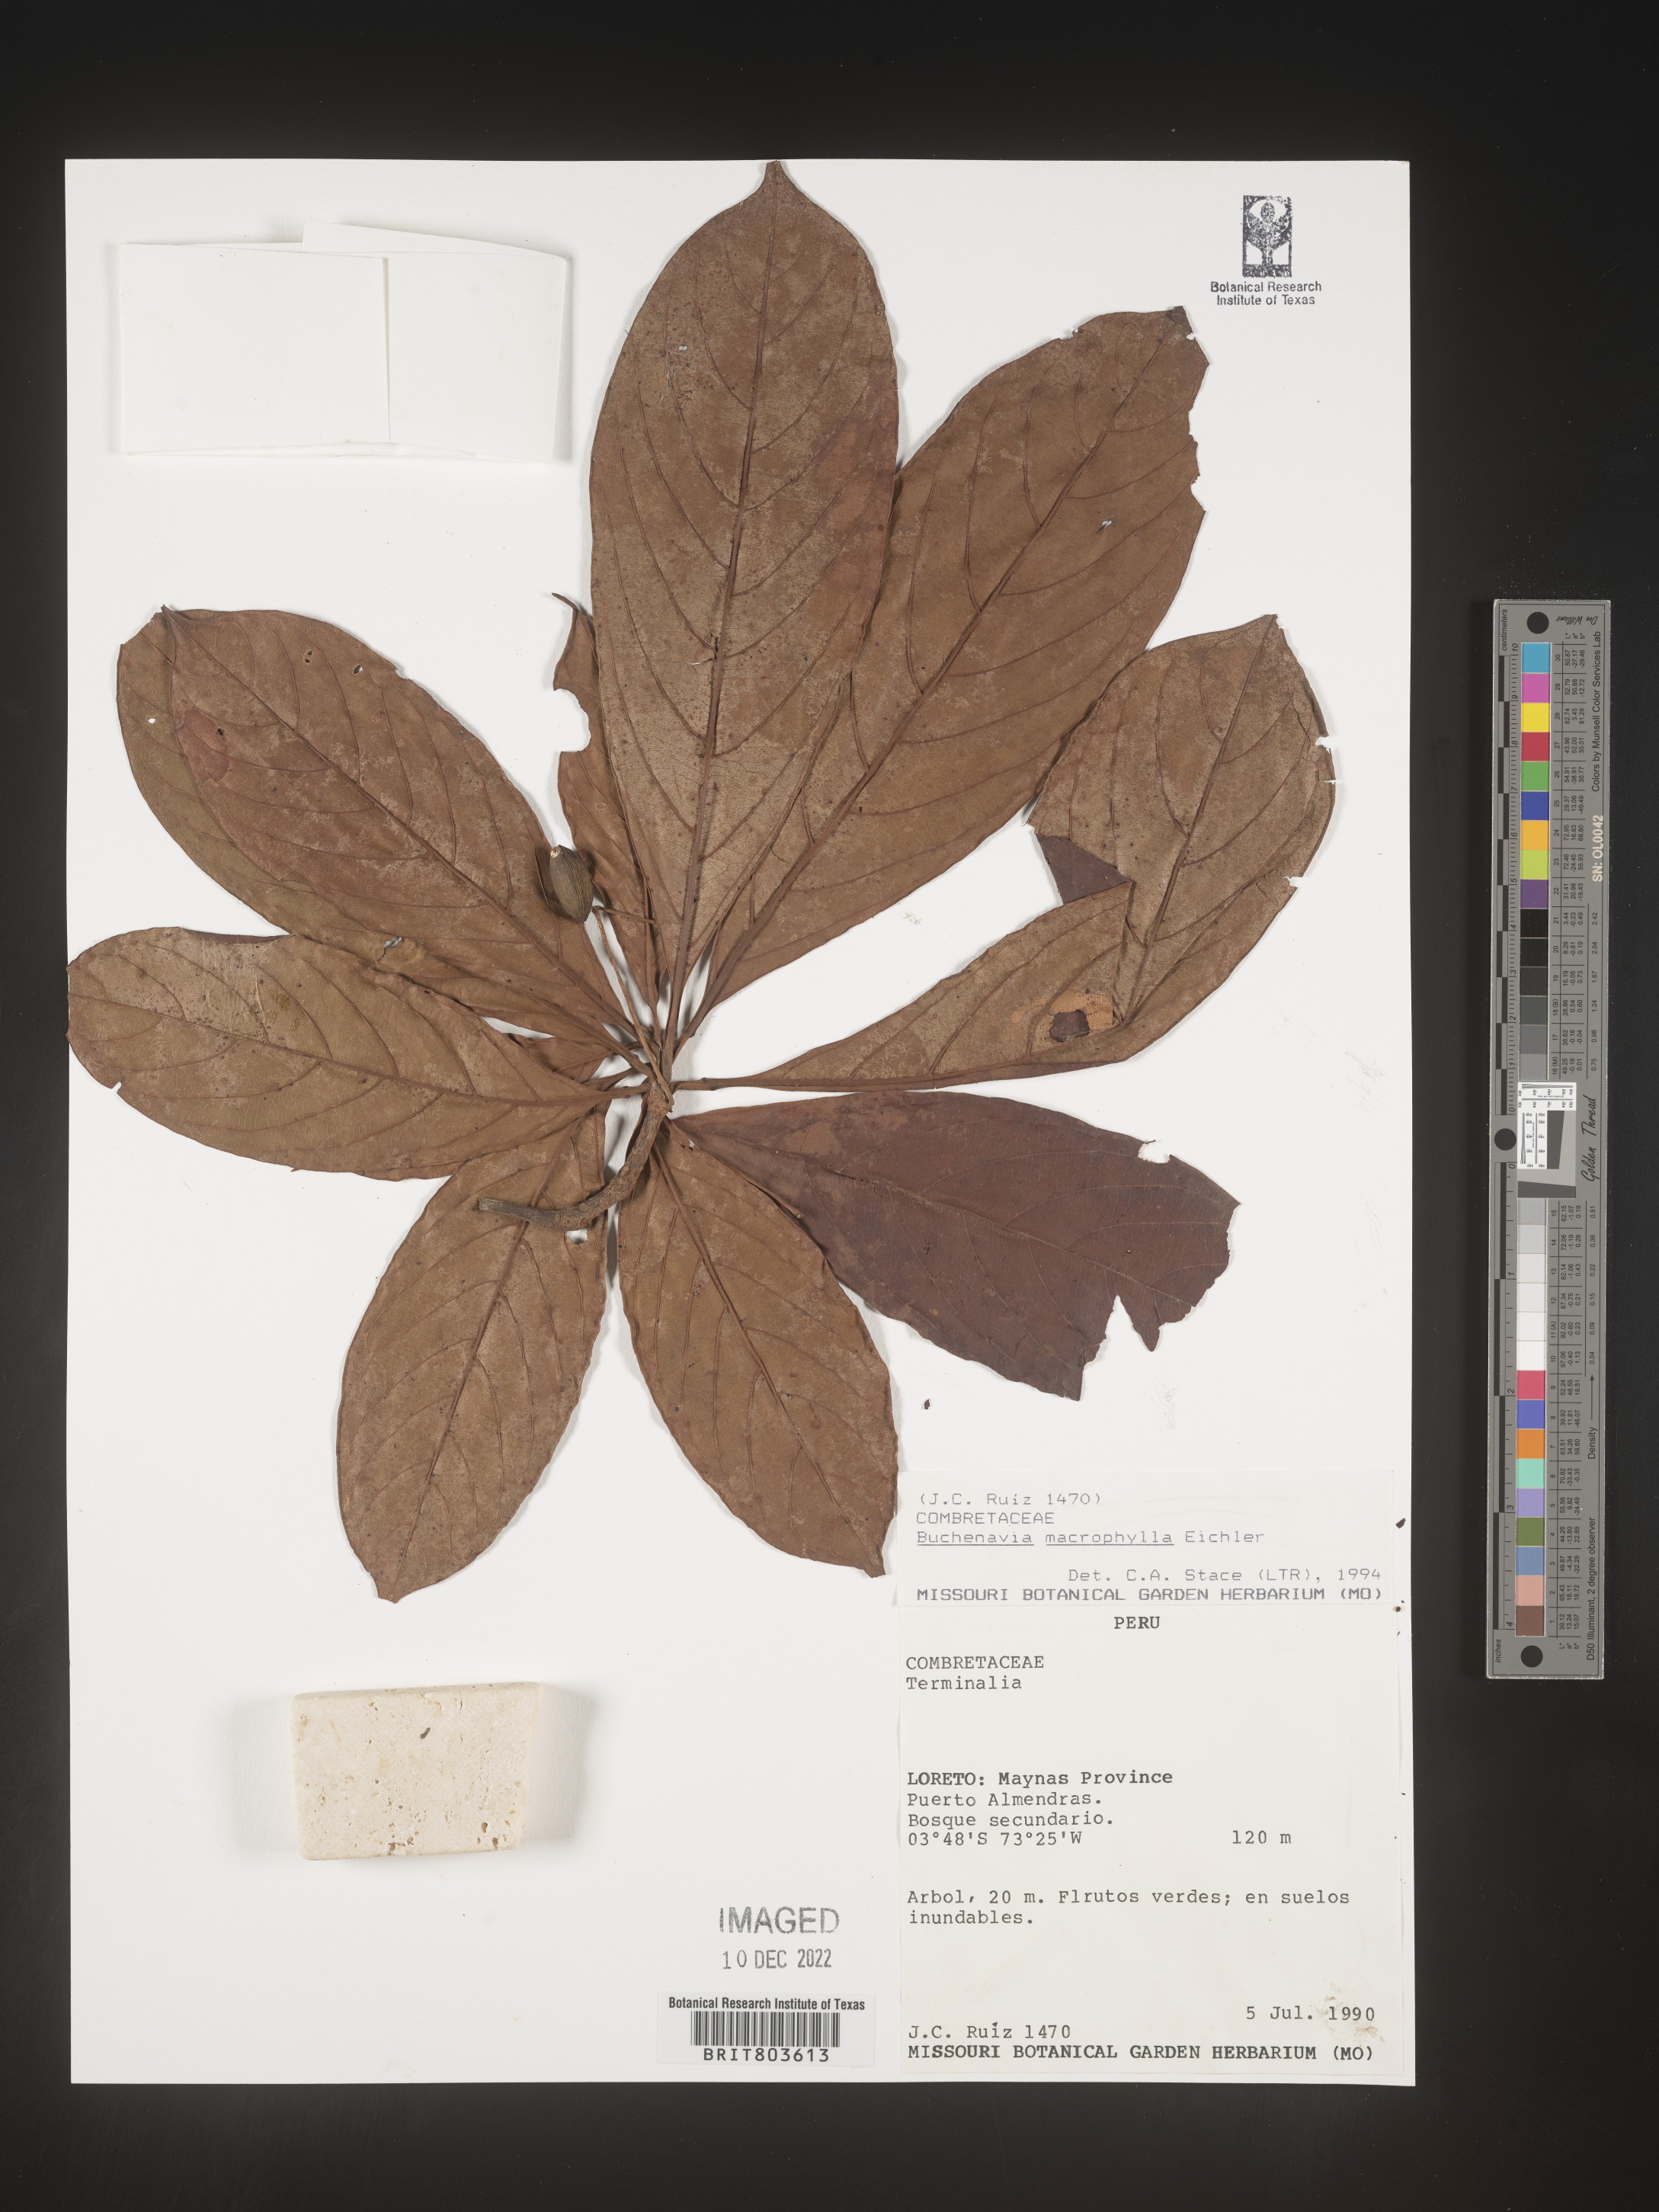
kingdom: Plantae
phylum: Tracheophyta
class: Magnoliopsida
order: Myrtales
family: Combretaceae
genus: Terminalia
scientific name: Terminalia
